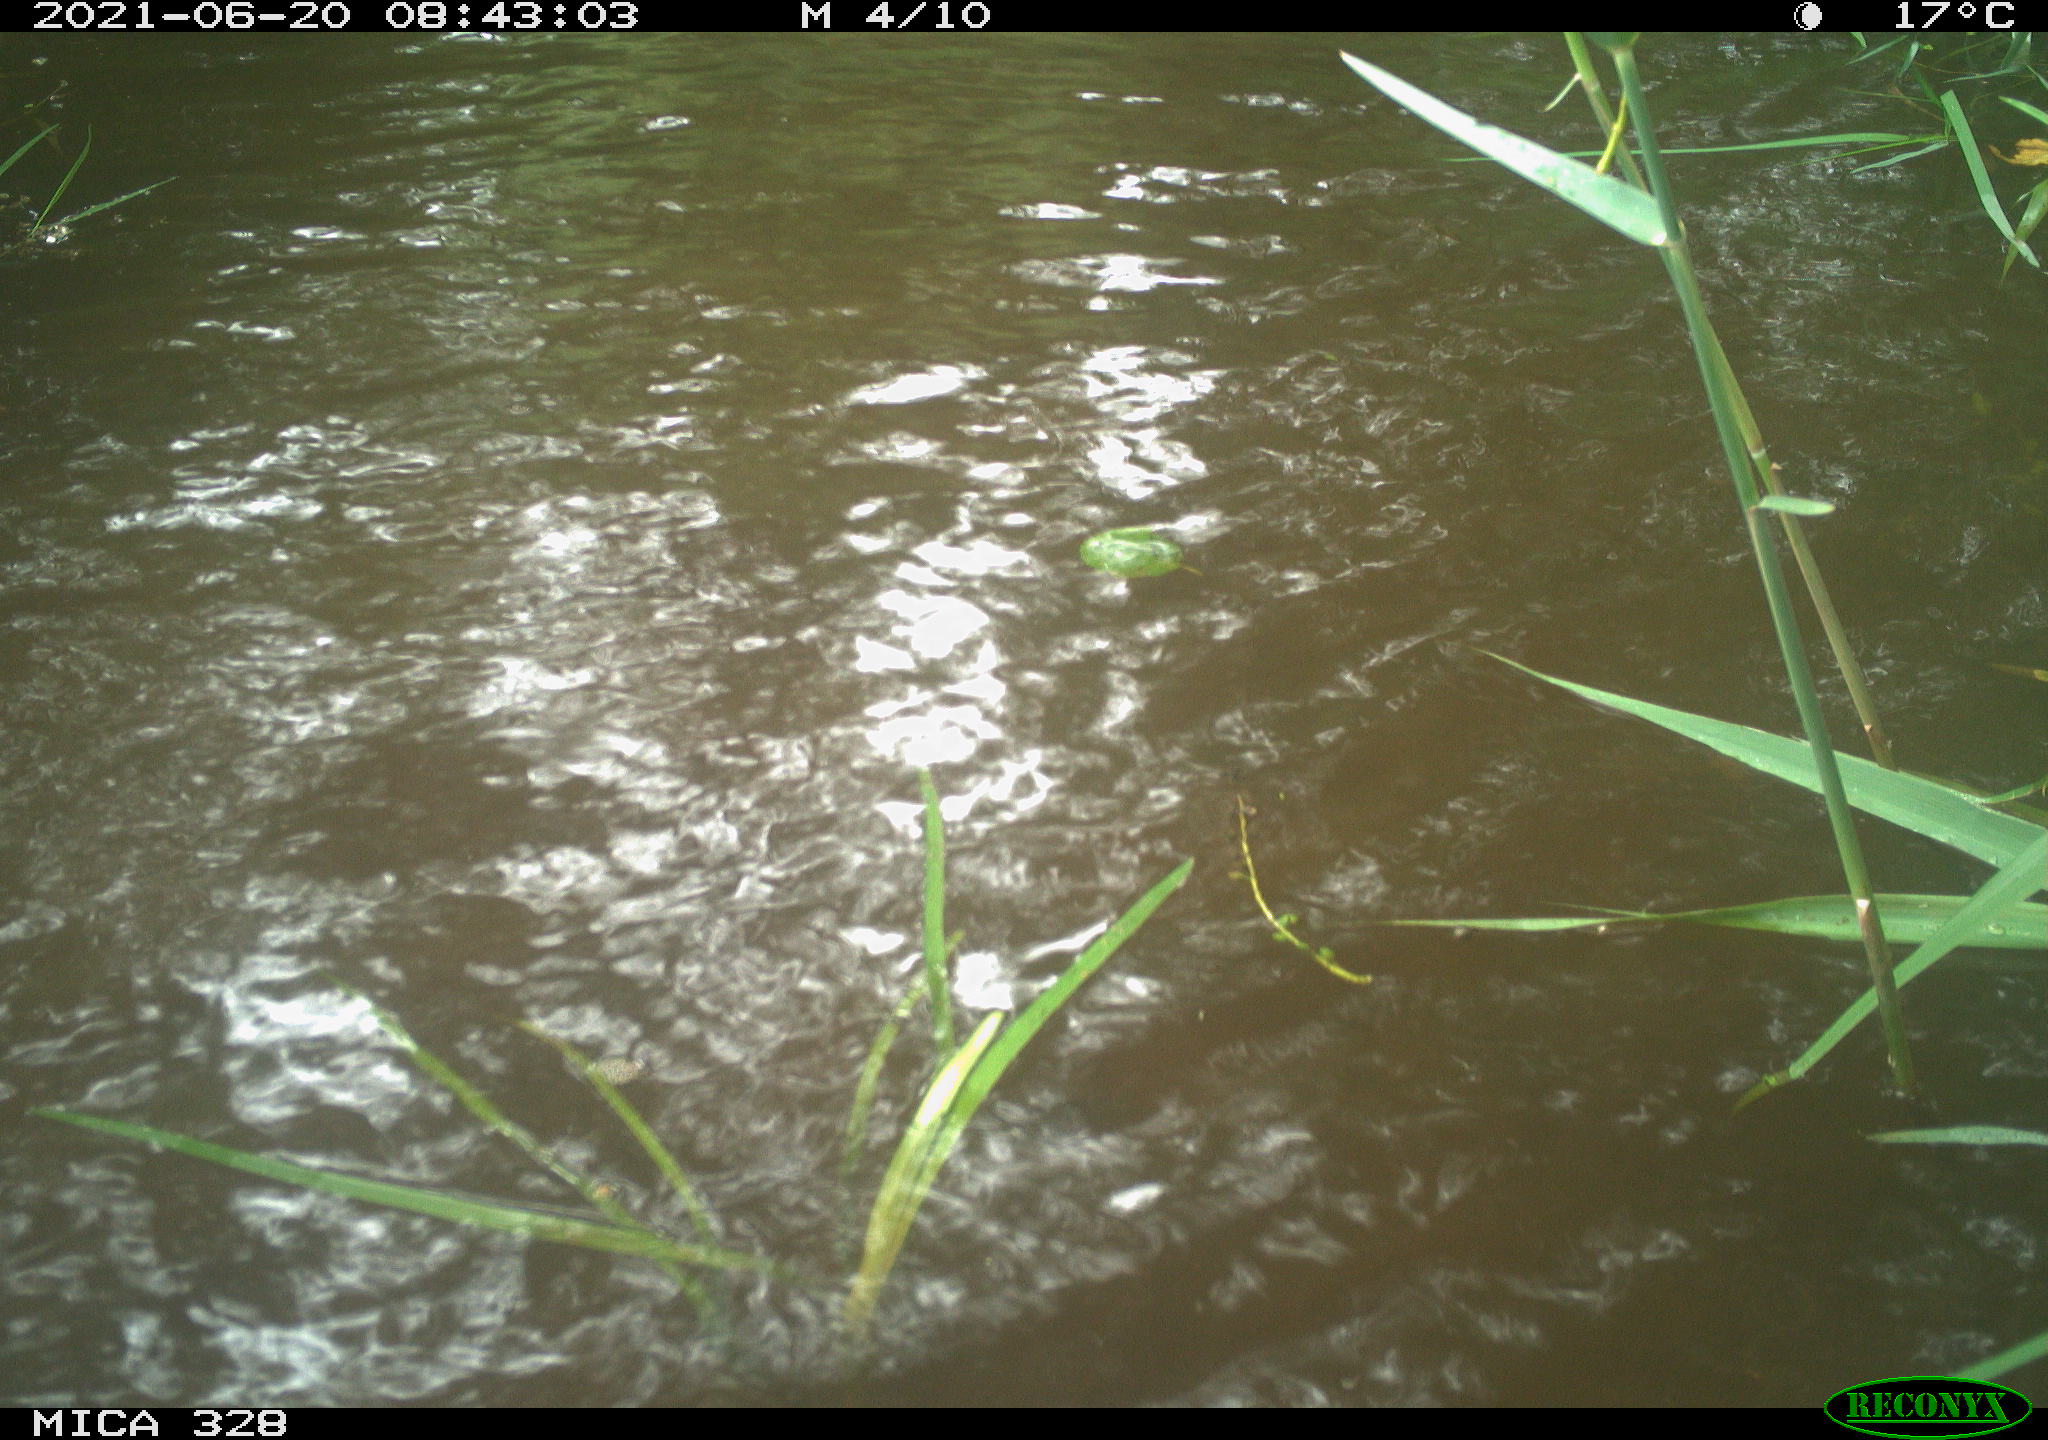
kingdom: Animalia
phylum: Chordata
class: Aves
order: Anseriformes
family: Anatidae
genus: Aix
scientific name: Aix galericulata
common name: Mandarin duck
